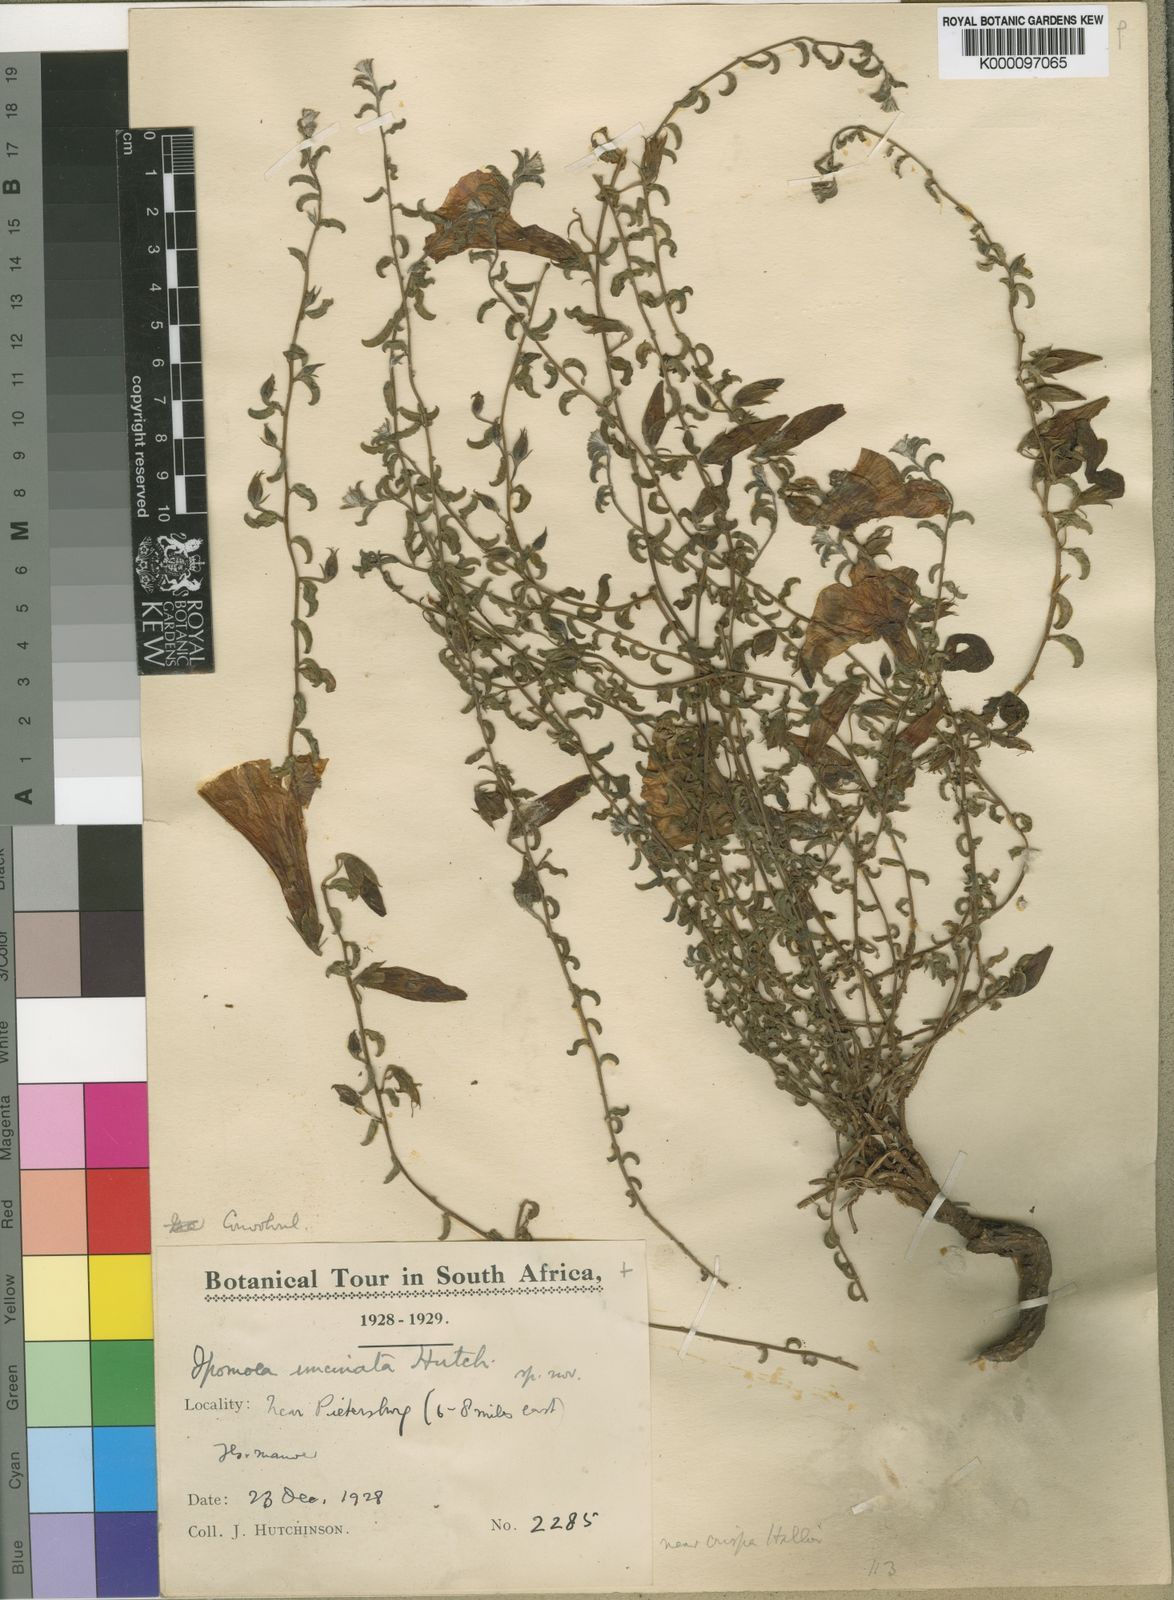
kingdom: Plantae
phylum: Tracheophyta
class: Magnoliopsida
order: Solanales
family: Convolvulaceae
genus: Ipomoea
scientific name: Ipomoea robertsiana
